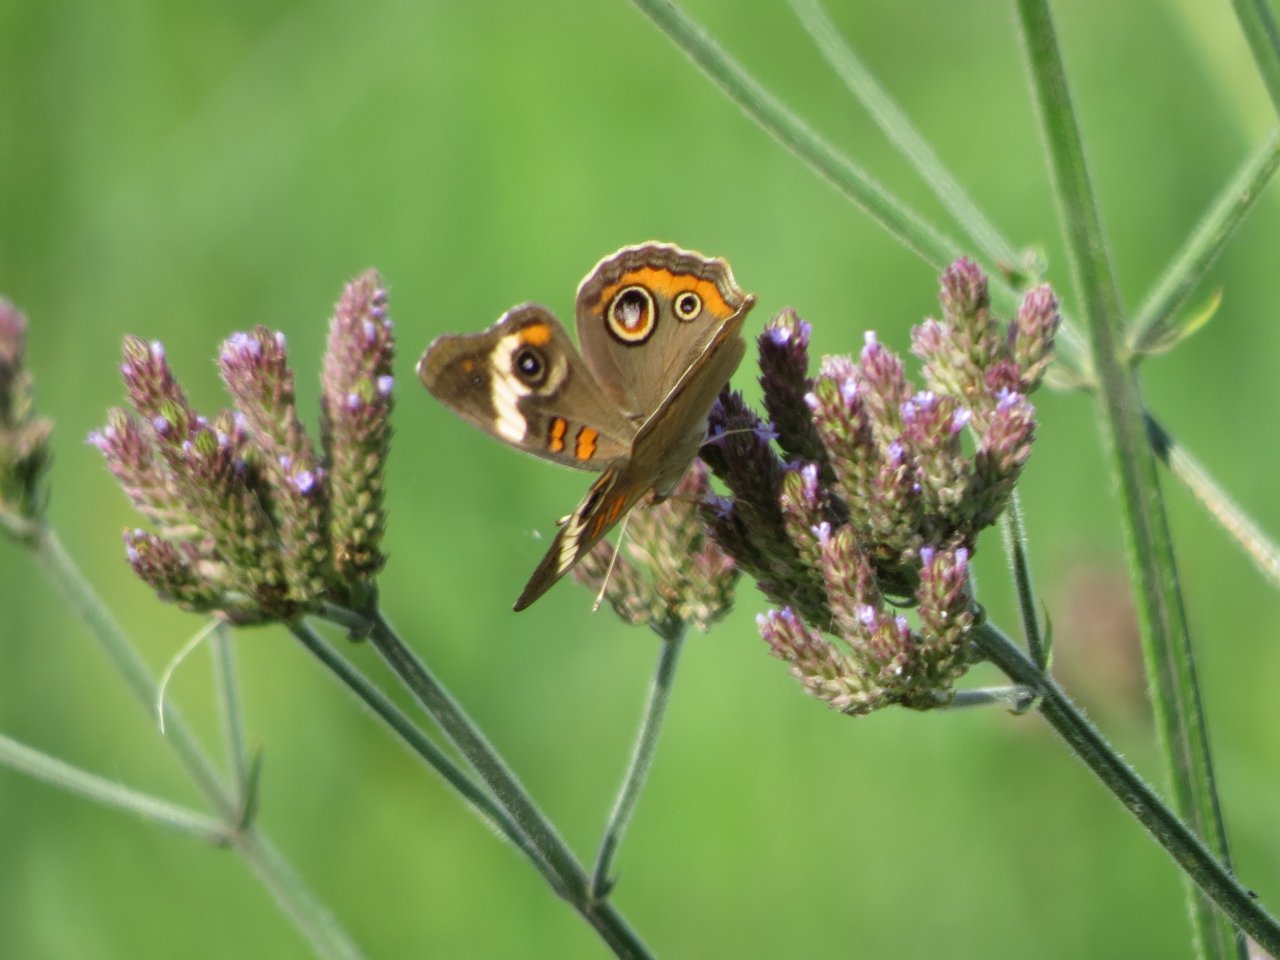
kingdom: Animalia
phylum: Arthropoda
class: Insecta
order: Lepidoptera
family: Nymphalidae
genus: Junonia
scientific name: Junonia coenia
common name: Common Buckeye
